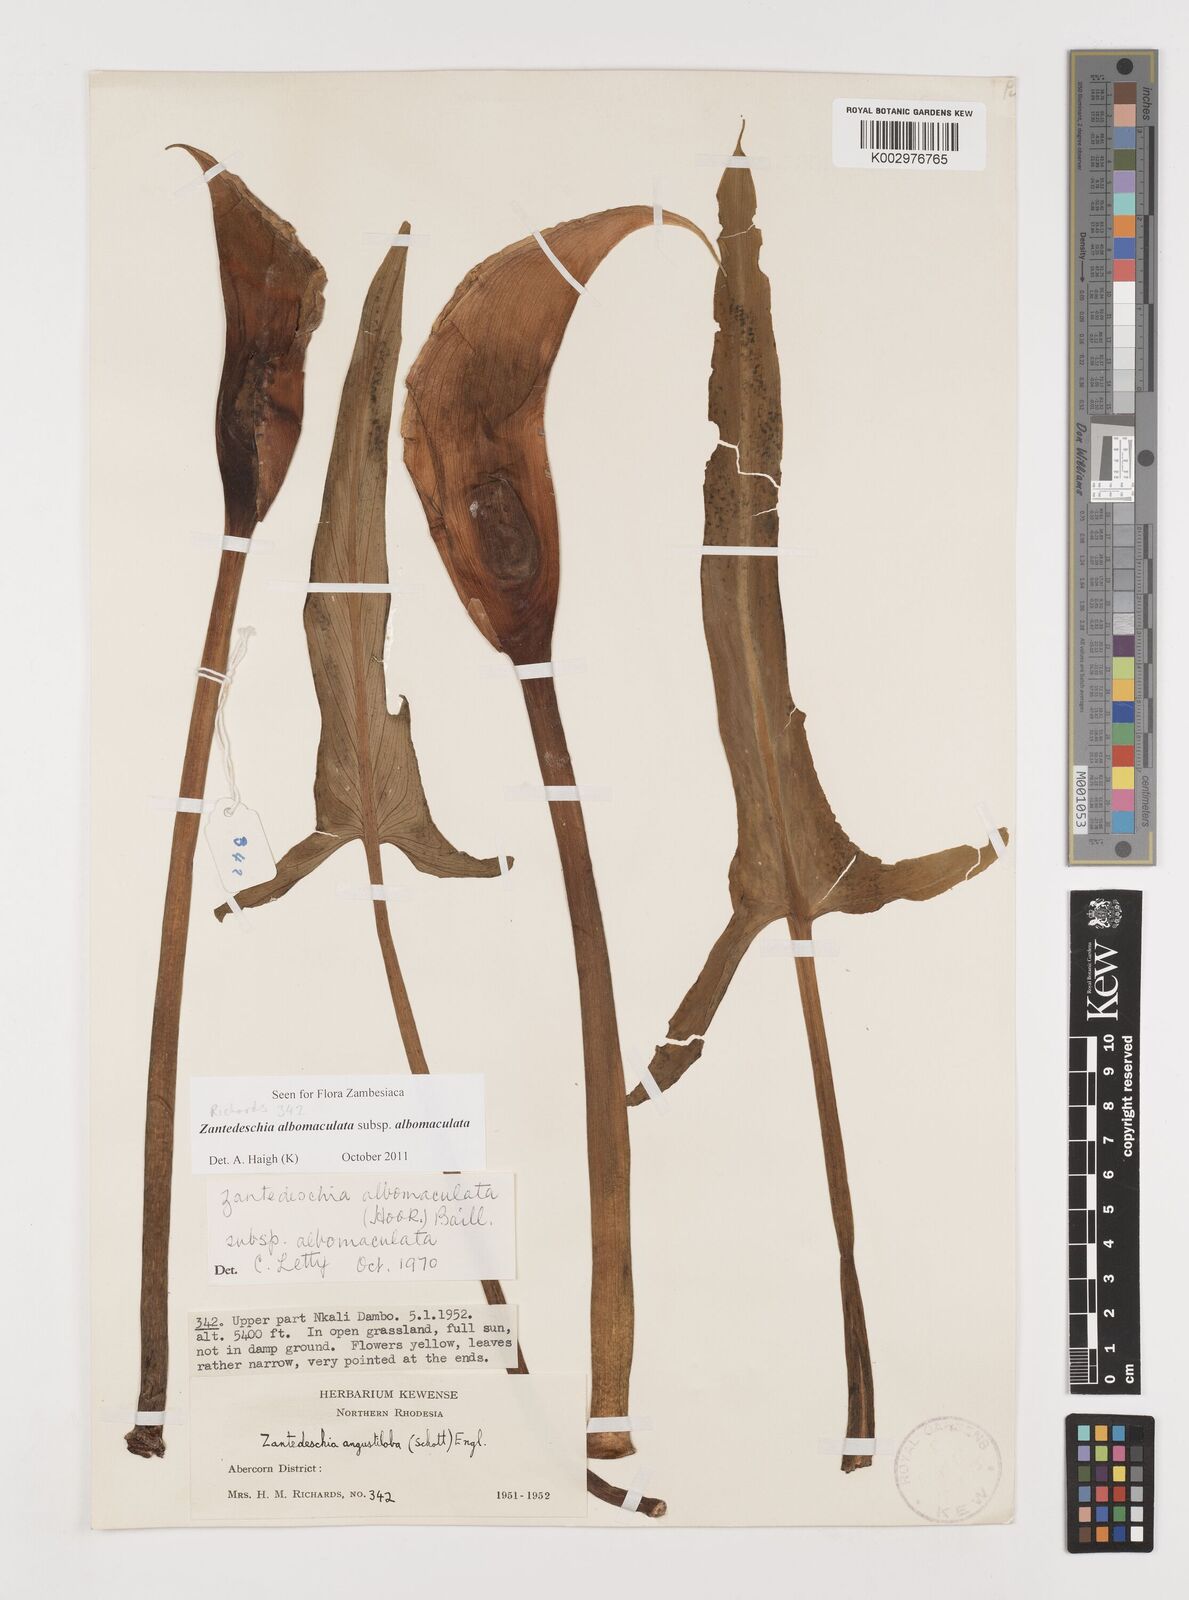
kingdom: Plantae
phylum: Tracheophyta
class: Liliopsida
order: Alismatales
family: Araceae
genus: Zantedeschia
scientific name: Zantedeschia albomaculata
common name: Spotted calla lily
